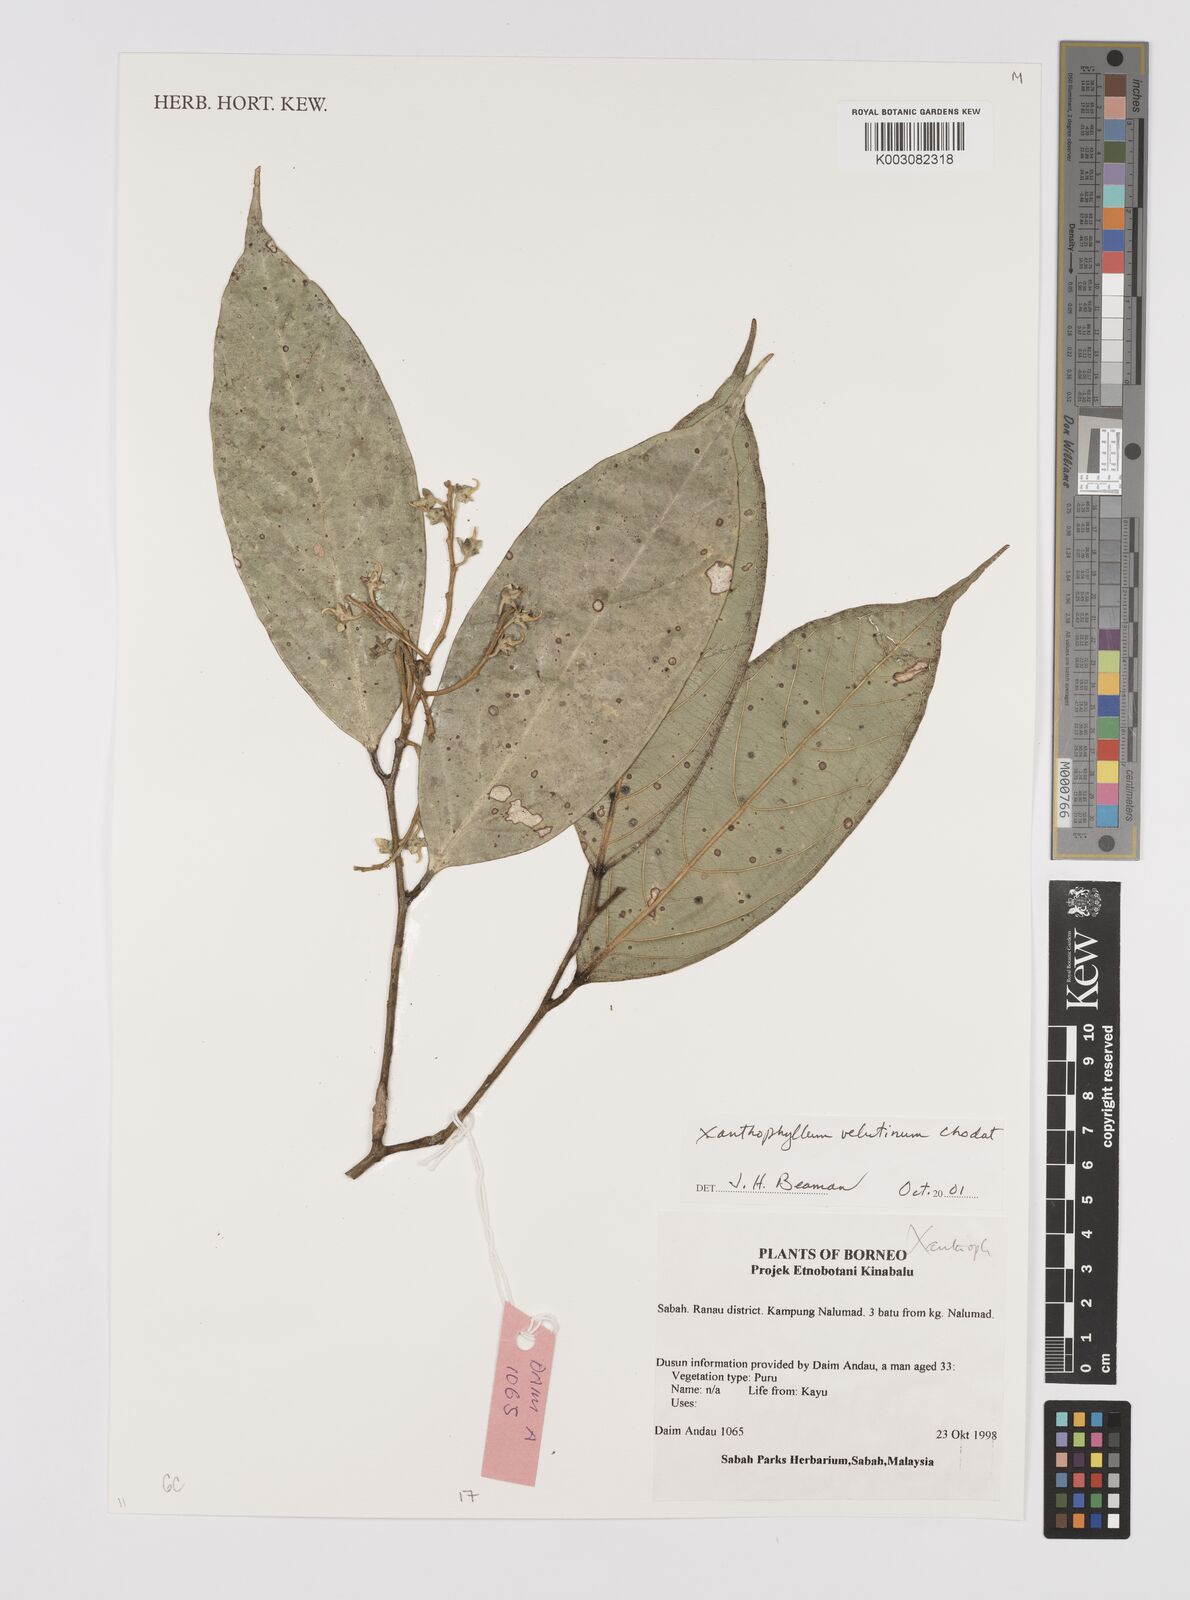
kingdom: Plantae
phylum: Tracheophyta
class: Magnoliopsida
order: Fabales
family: Polygalaceae
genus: Xanthophyllum
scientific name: Xanthophyllum velutinum
